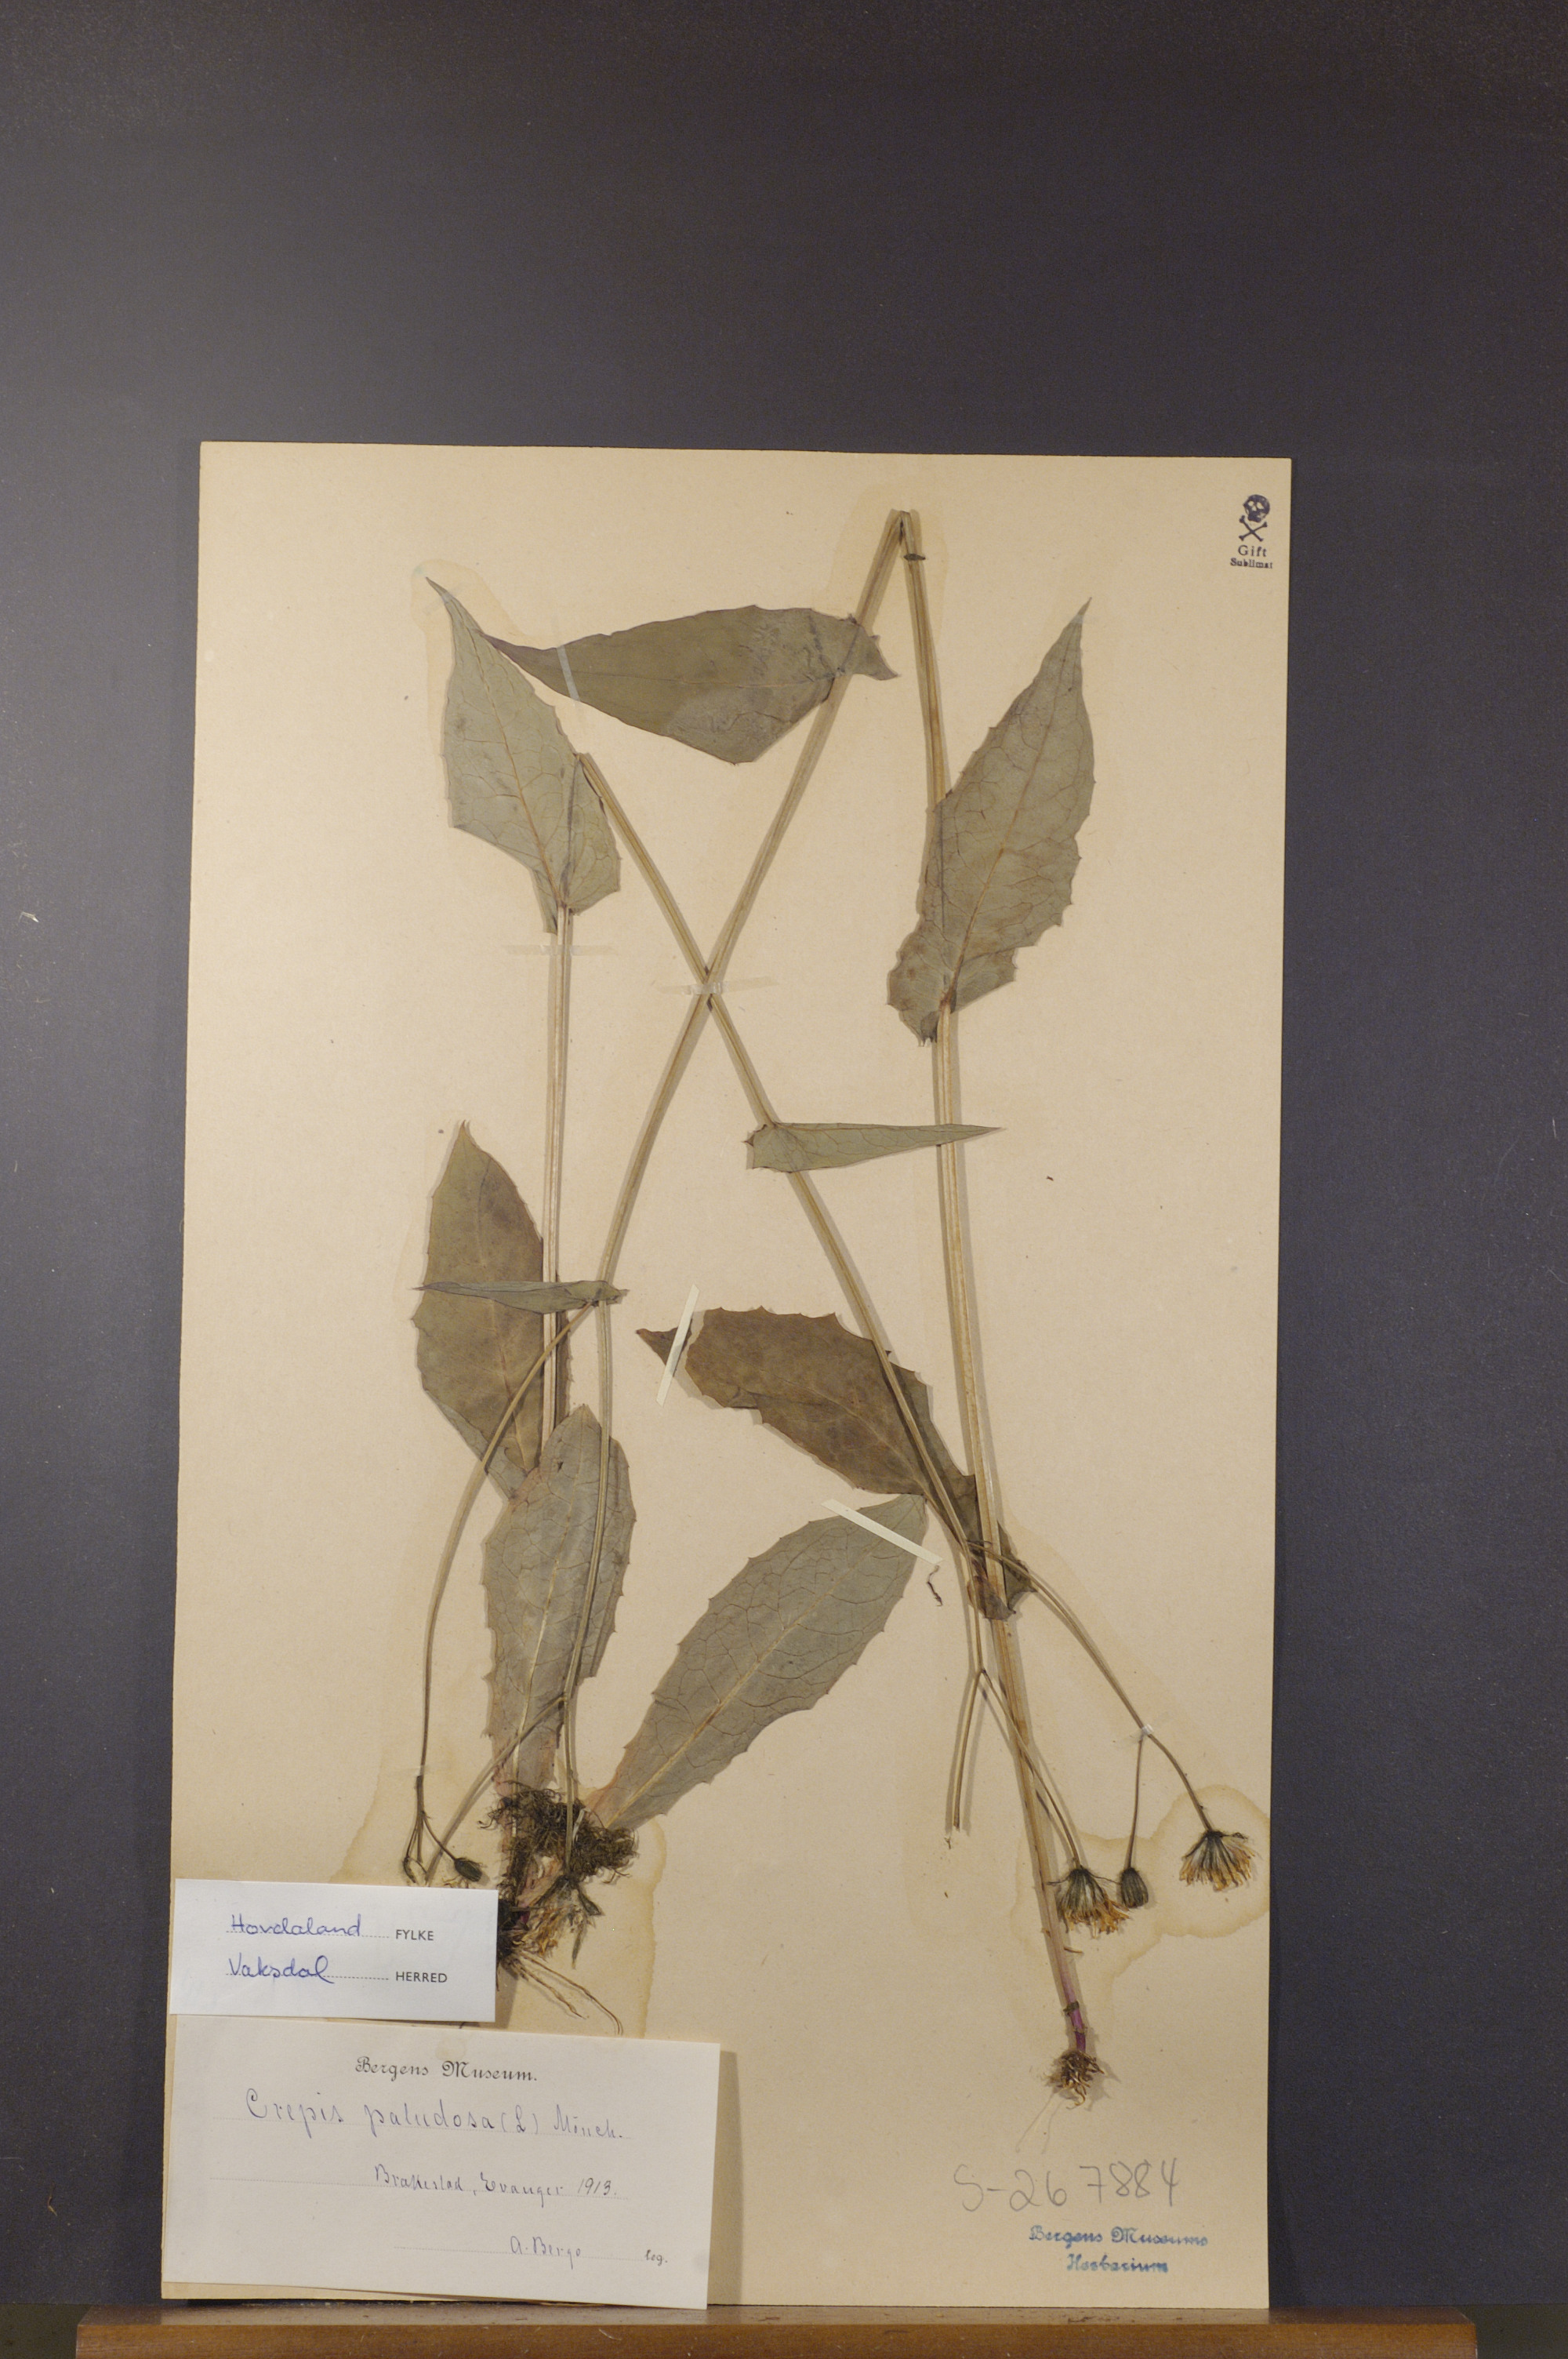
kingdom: Plantae
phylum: Tracheophyta
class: Magnoliopsida
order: Asterales
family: Asteraceae
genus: Crepis
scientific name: Crepis paludosa
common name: Marsh hawk's-beard
